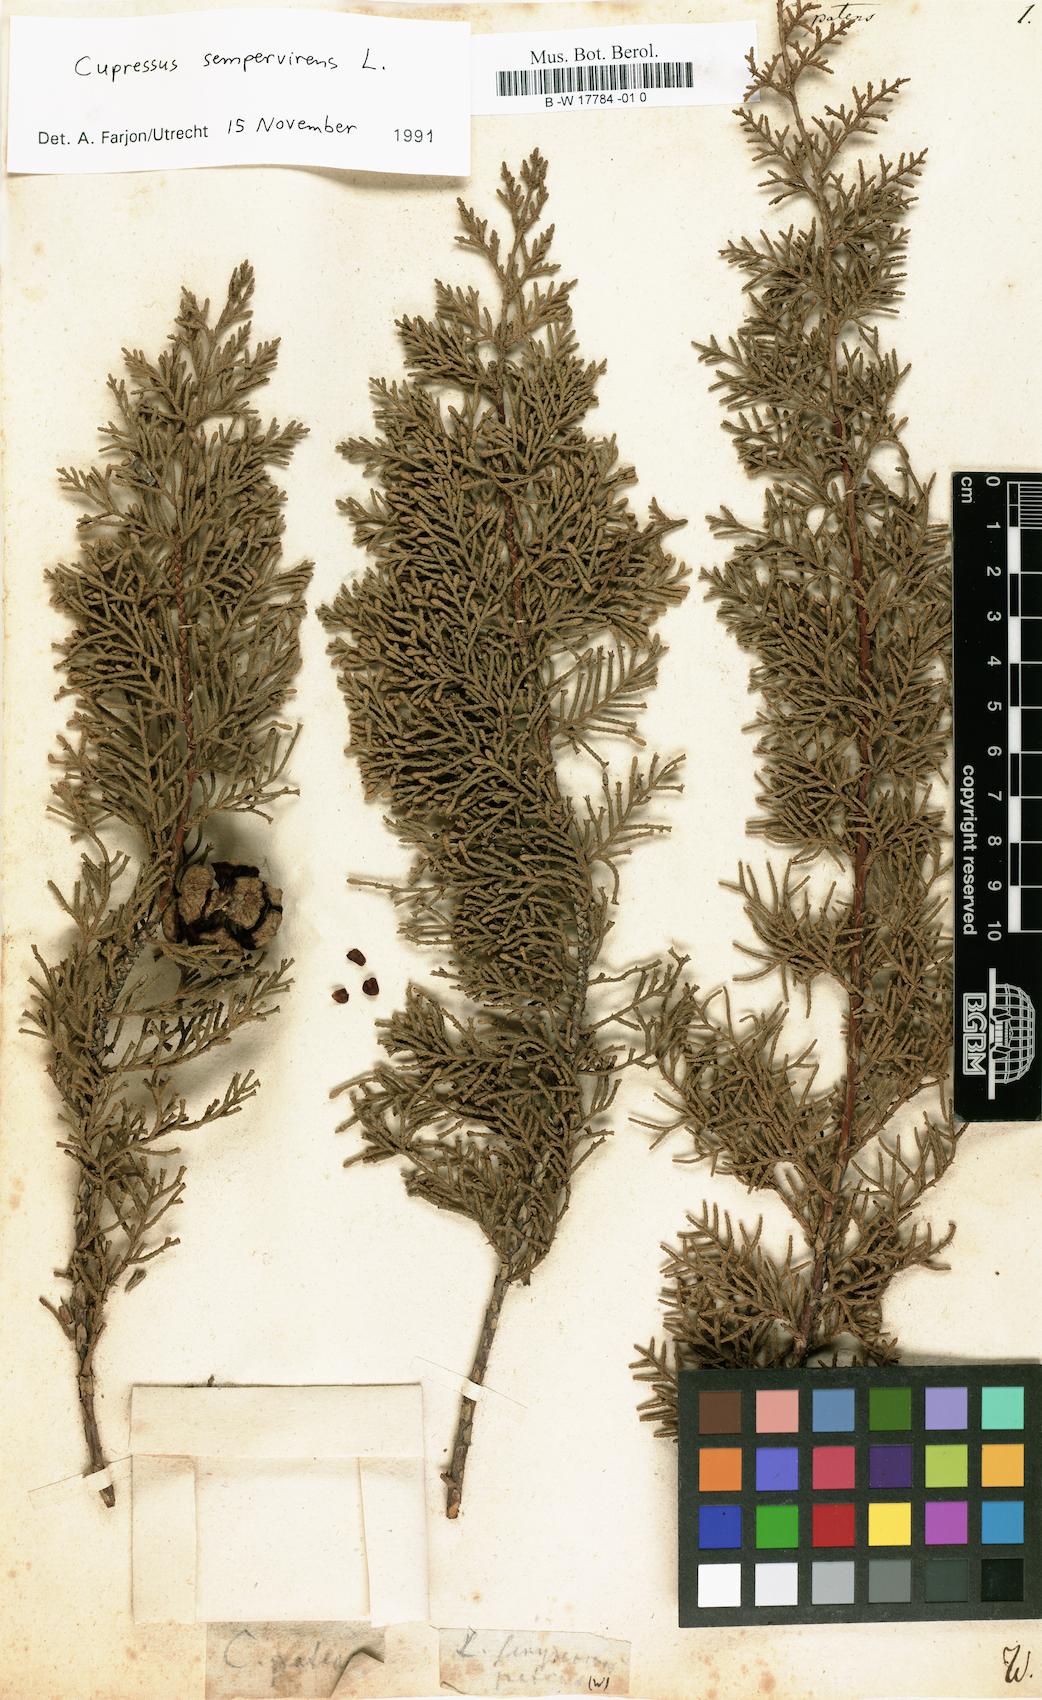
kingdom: Plantae
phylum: Tracheophyta
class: Pinopsida
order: Pinales
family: Cupressaceae
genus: Cupressus
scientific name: Cupressus
